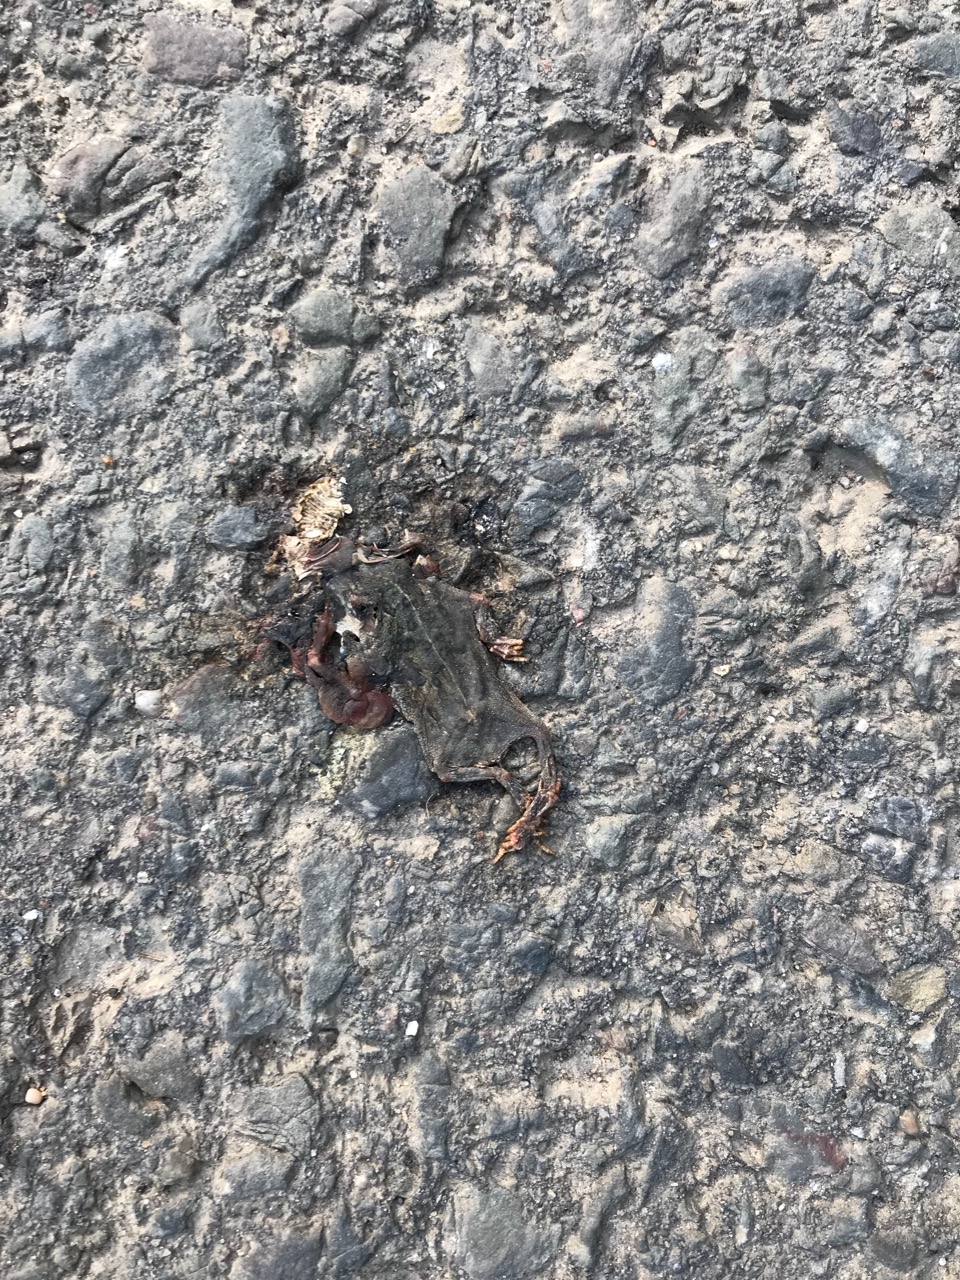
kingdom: Animalia
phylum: Chordata
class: Amphibia
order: Anura
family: Bufonidae
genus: Epidalea
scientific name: Epidalea calamita
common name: Natterjack toad
